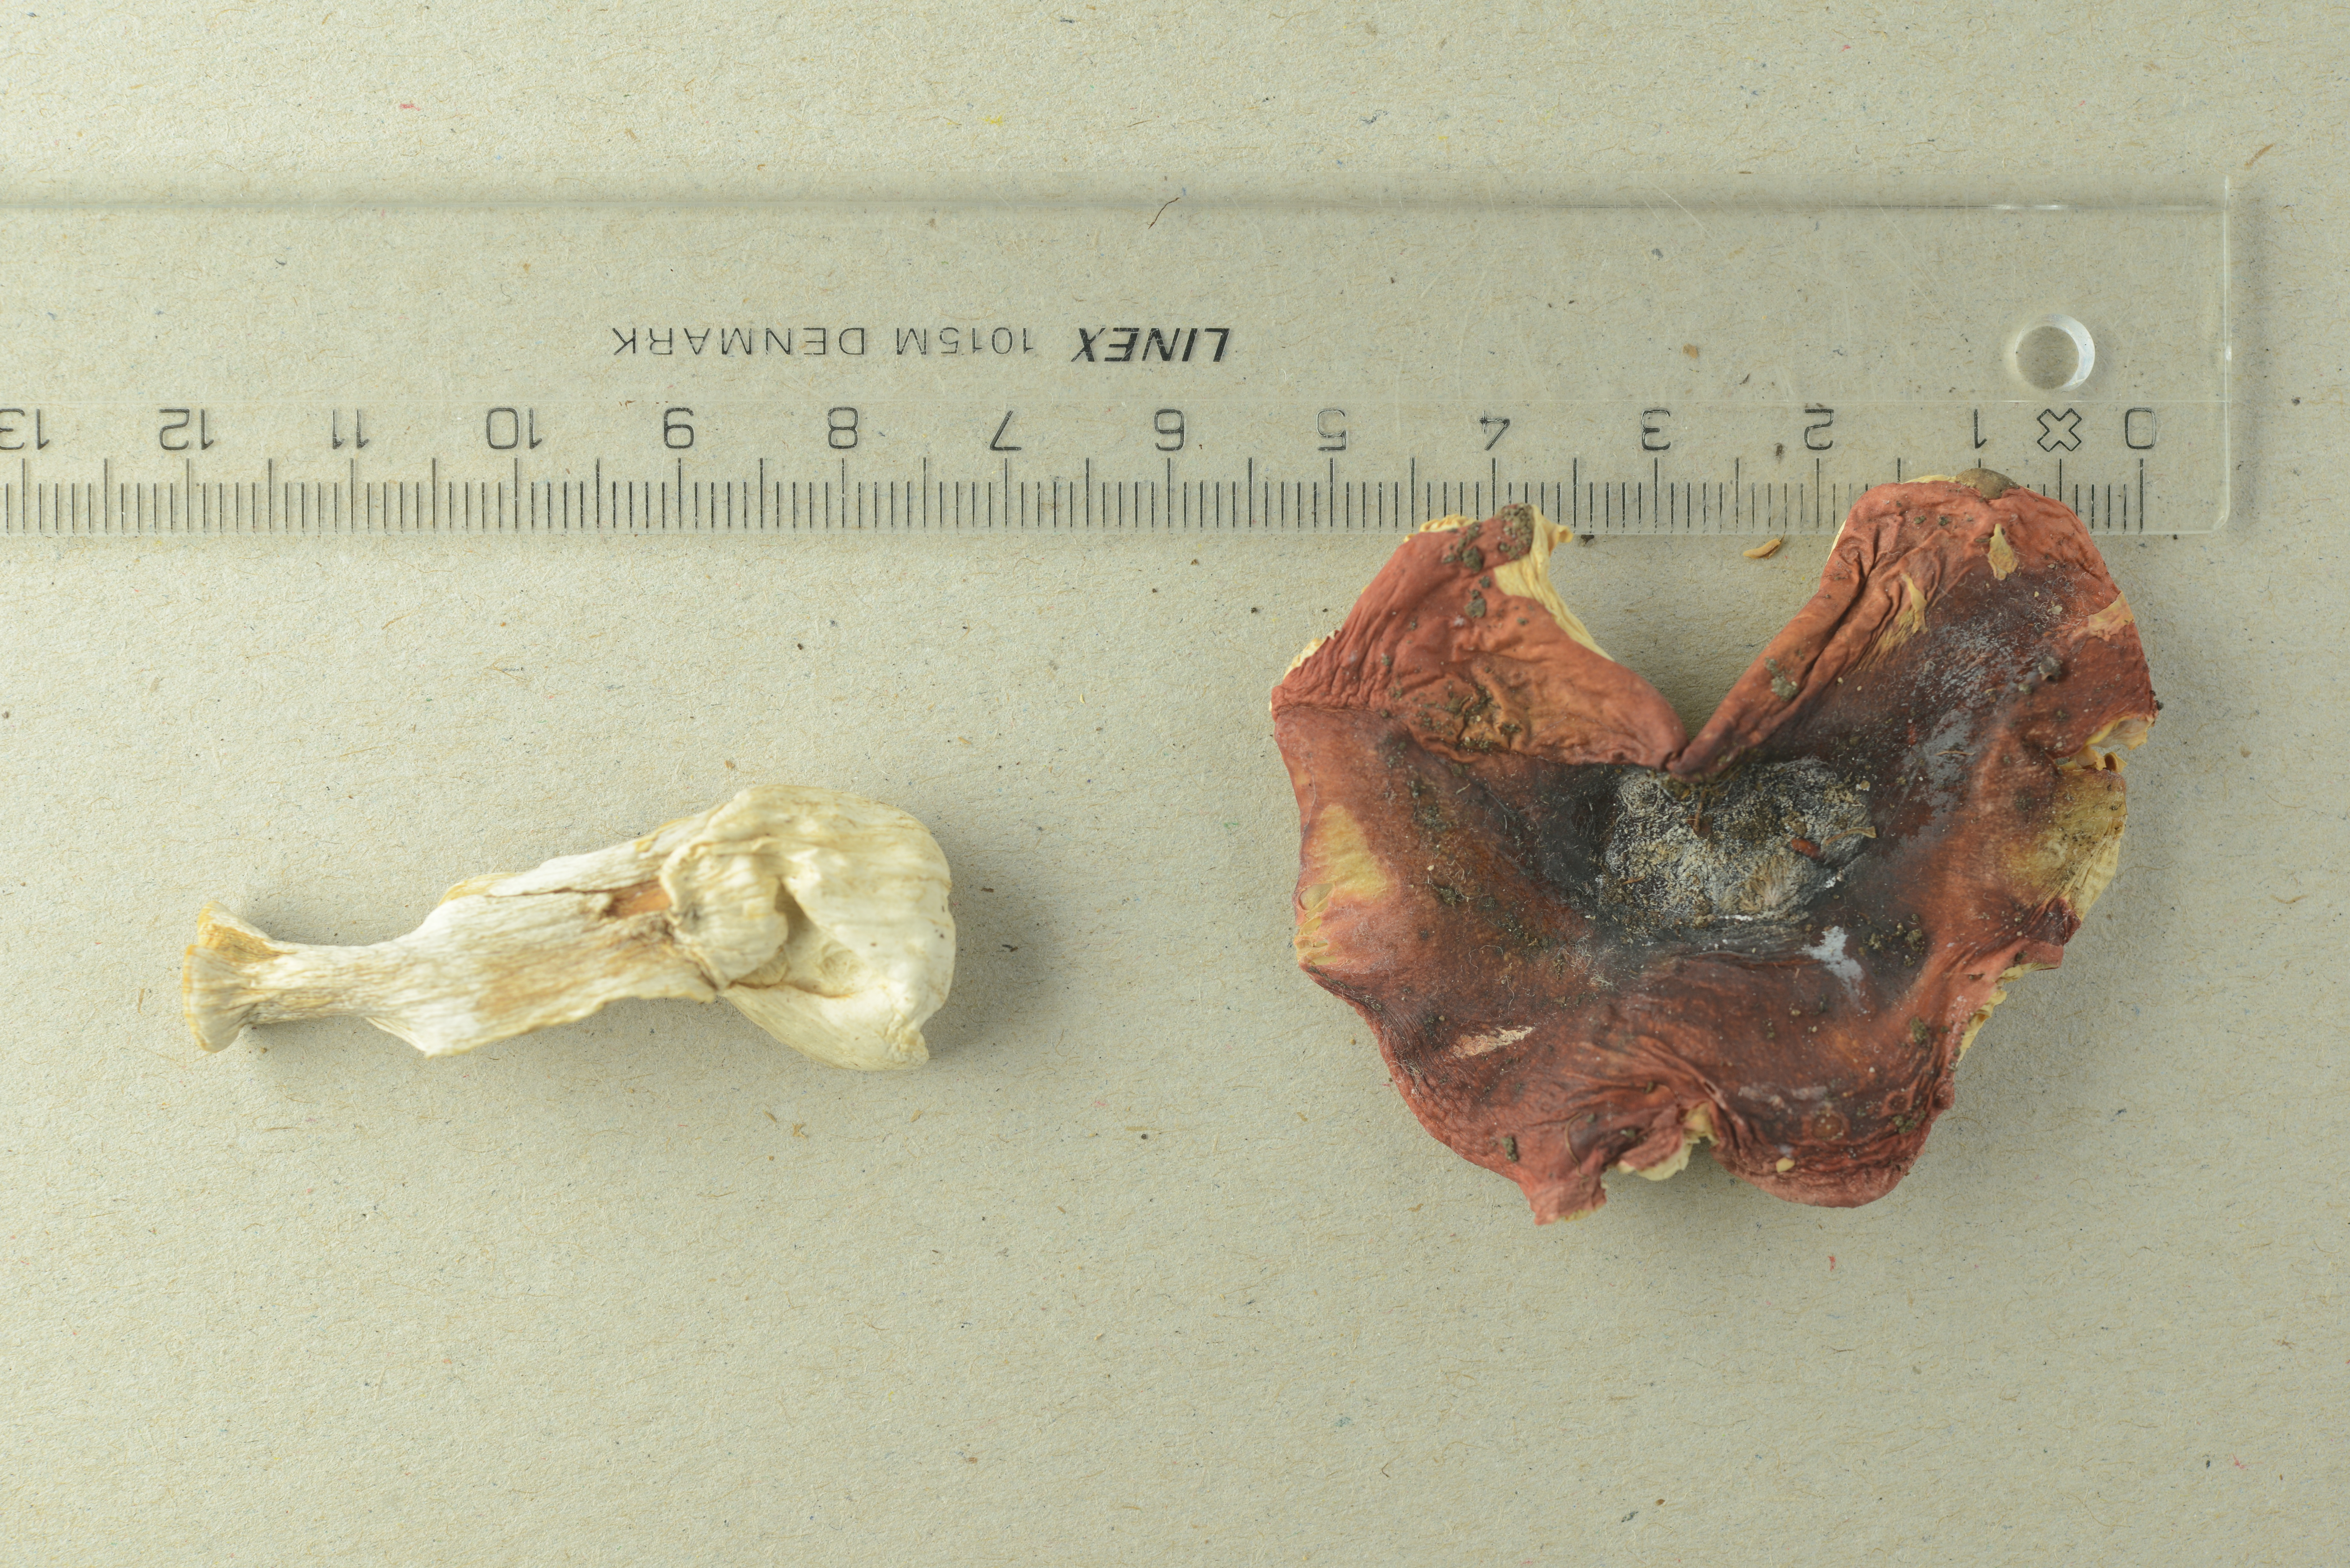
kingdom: Fungi
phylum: Basidiomycota
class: Agaricomycetes
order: Russulales
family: Russulaceae
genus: Russula
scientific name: Russula zvarae
